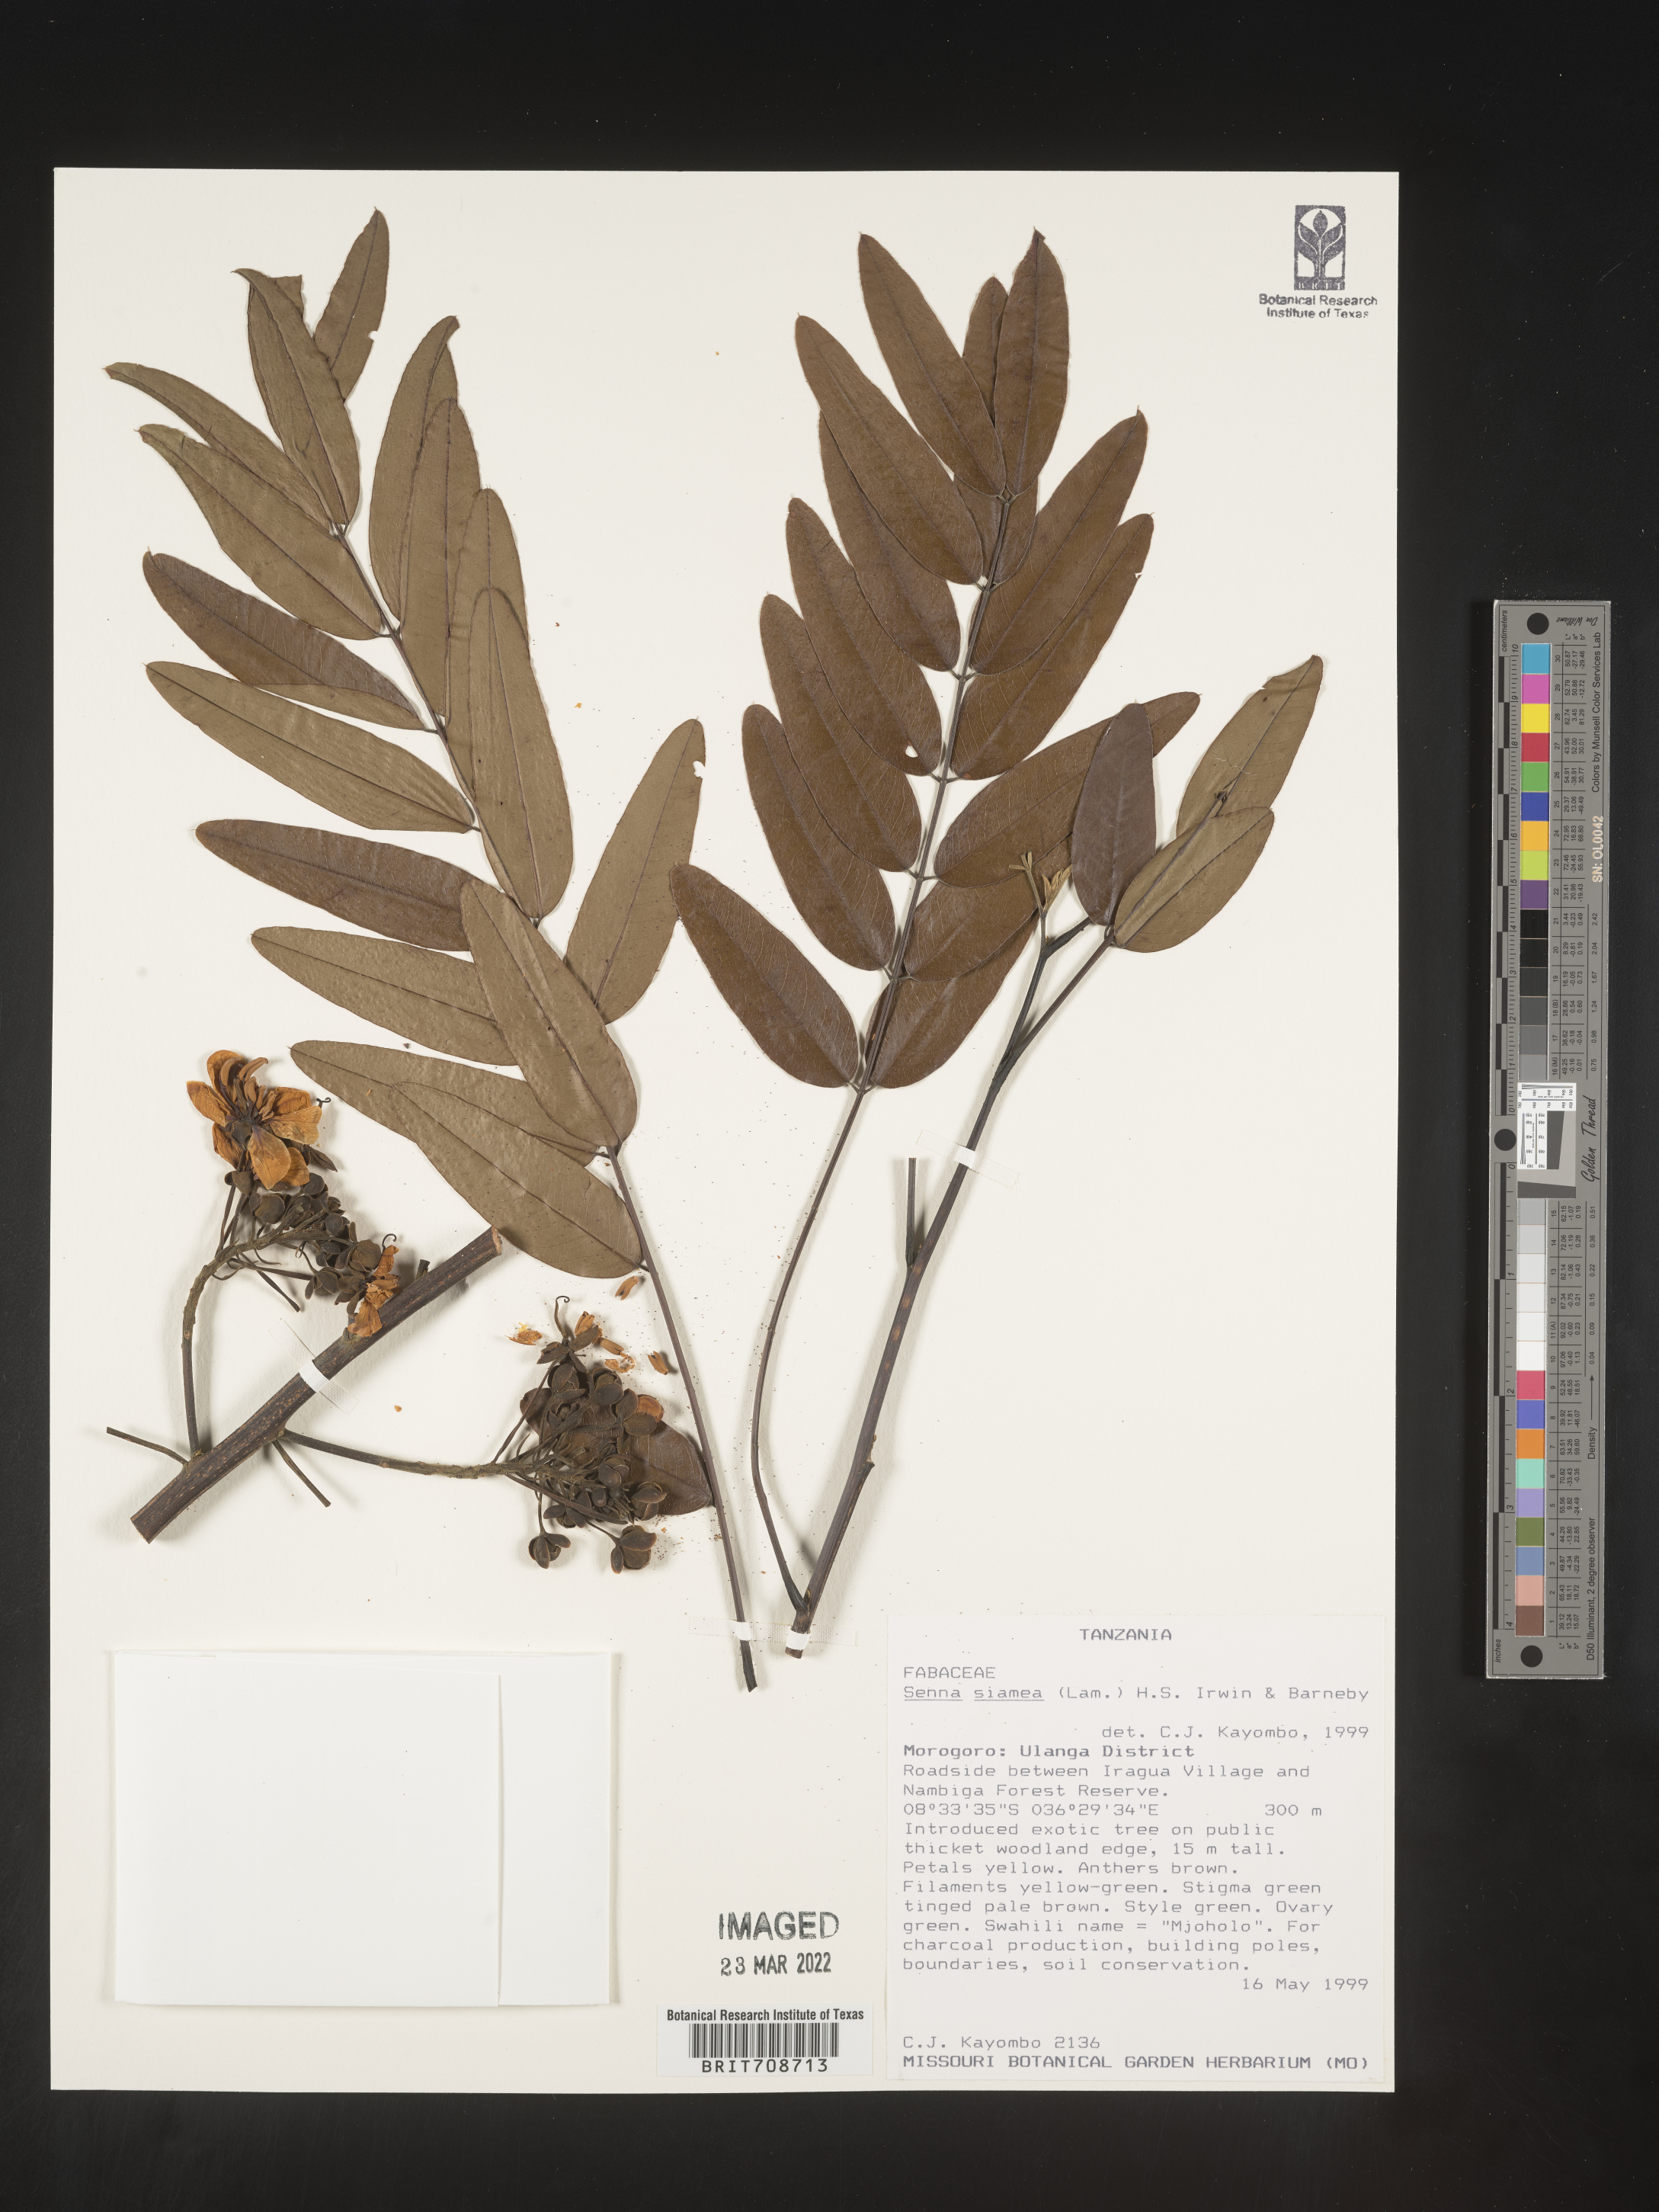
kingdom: Plantae
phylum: Tracheophyta
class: Magnoliopsida
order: Fabales
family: Fabaceae
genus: Senna
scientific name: Senna
